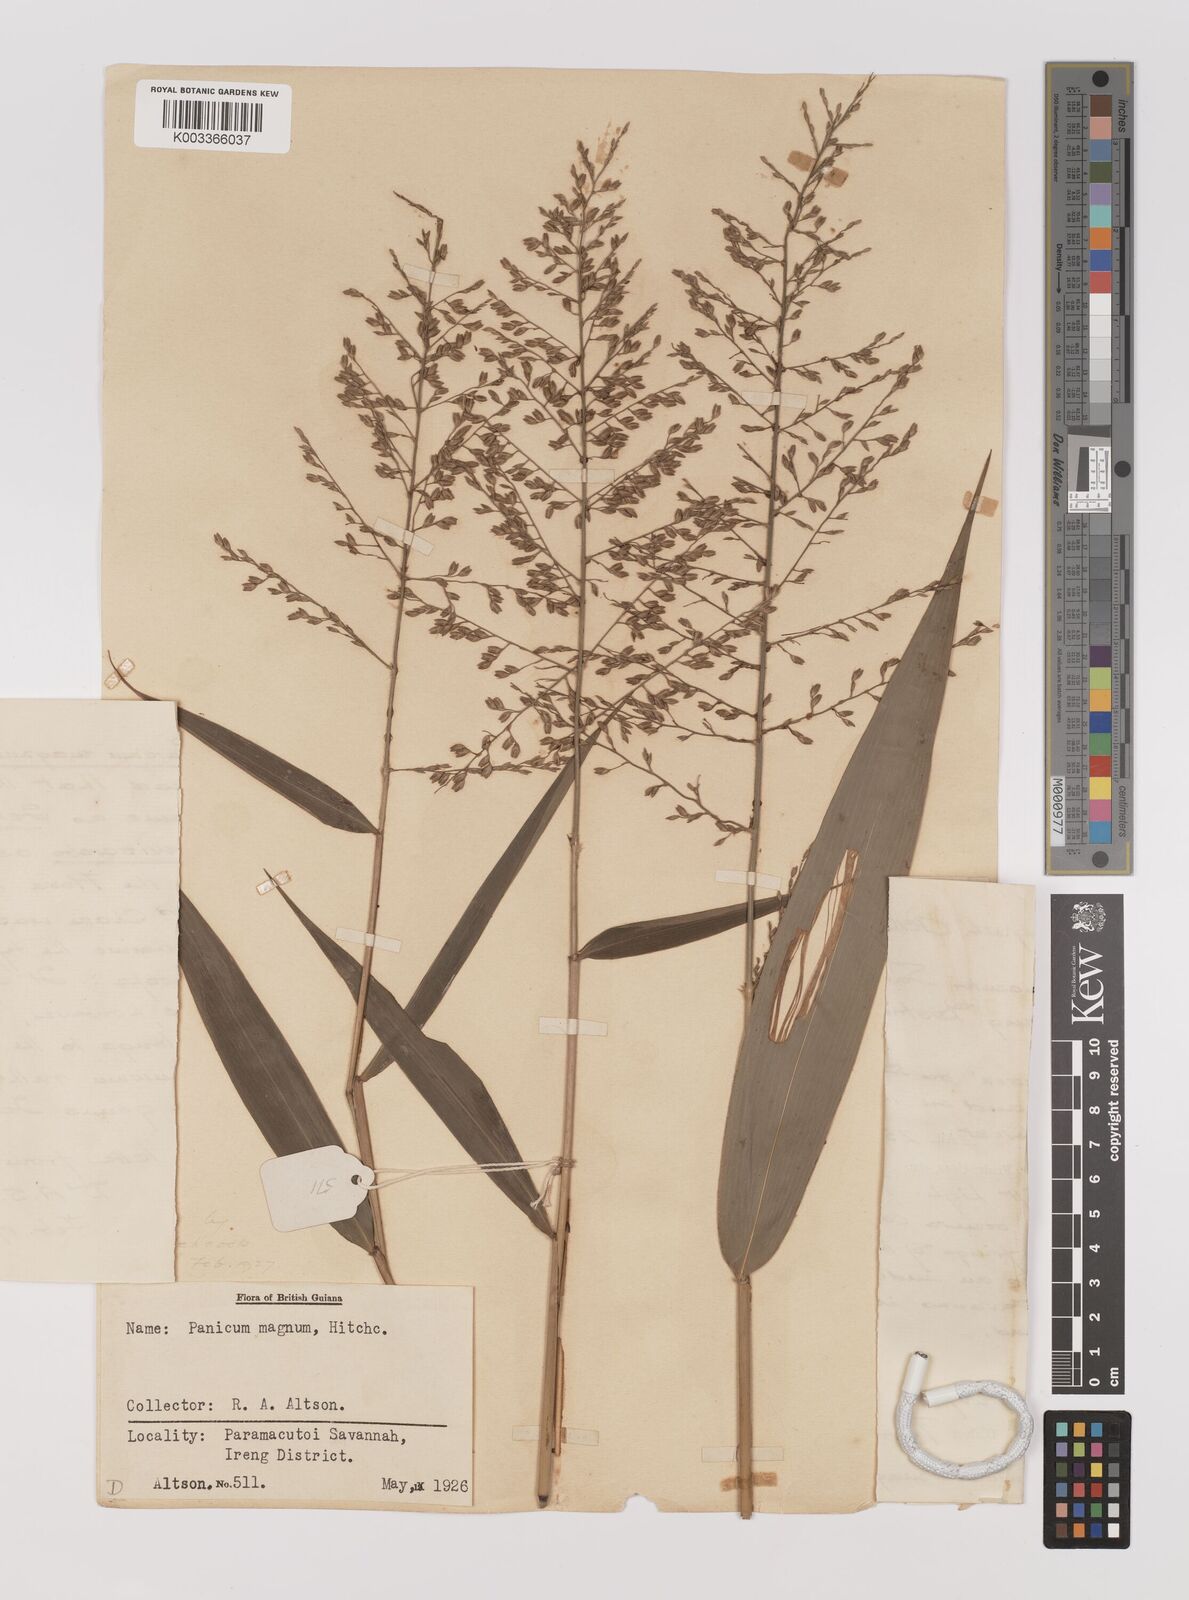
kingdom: Plantae
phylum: Tracheophyta
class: Liliopsida
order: Poales
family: Poaceae
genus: Ichnanthus
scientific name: Ichnanthus breviscrobs
